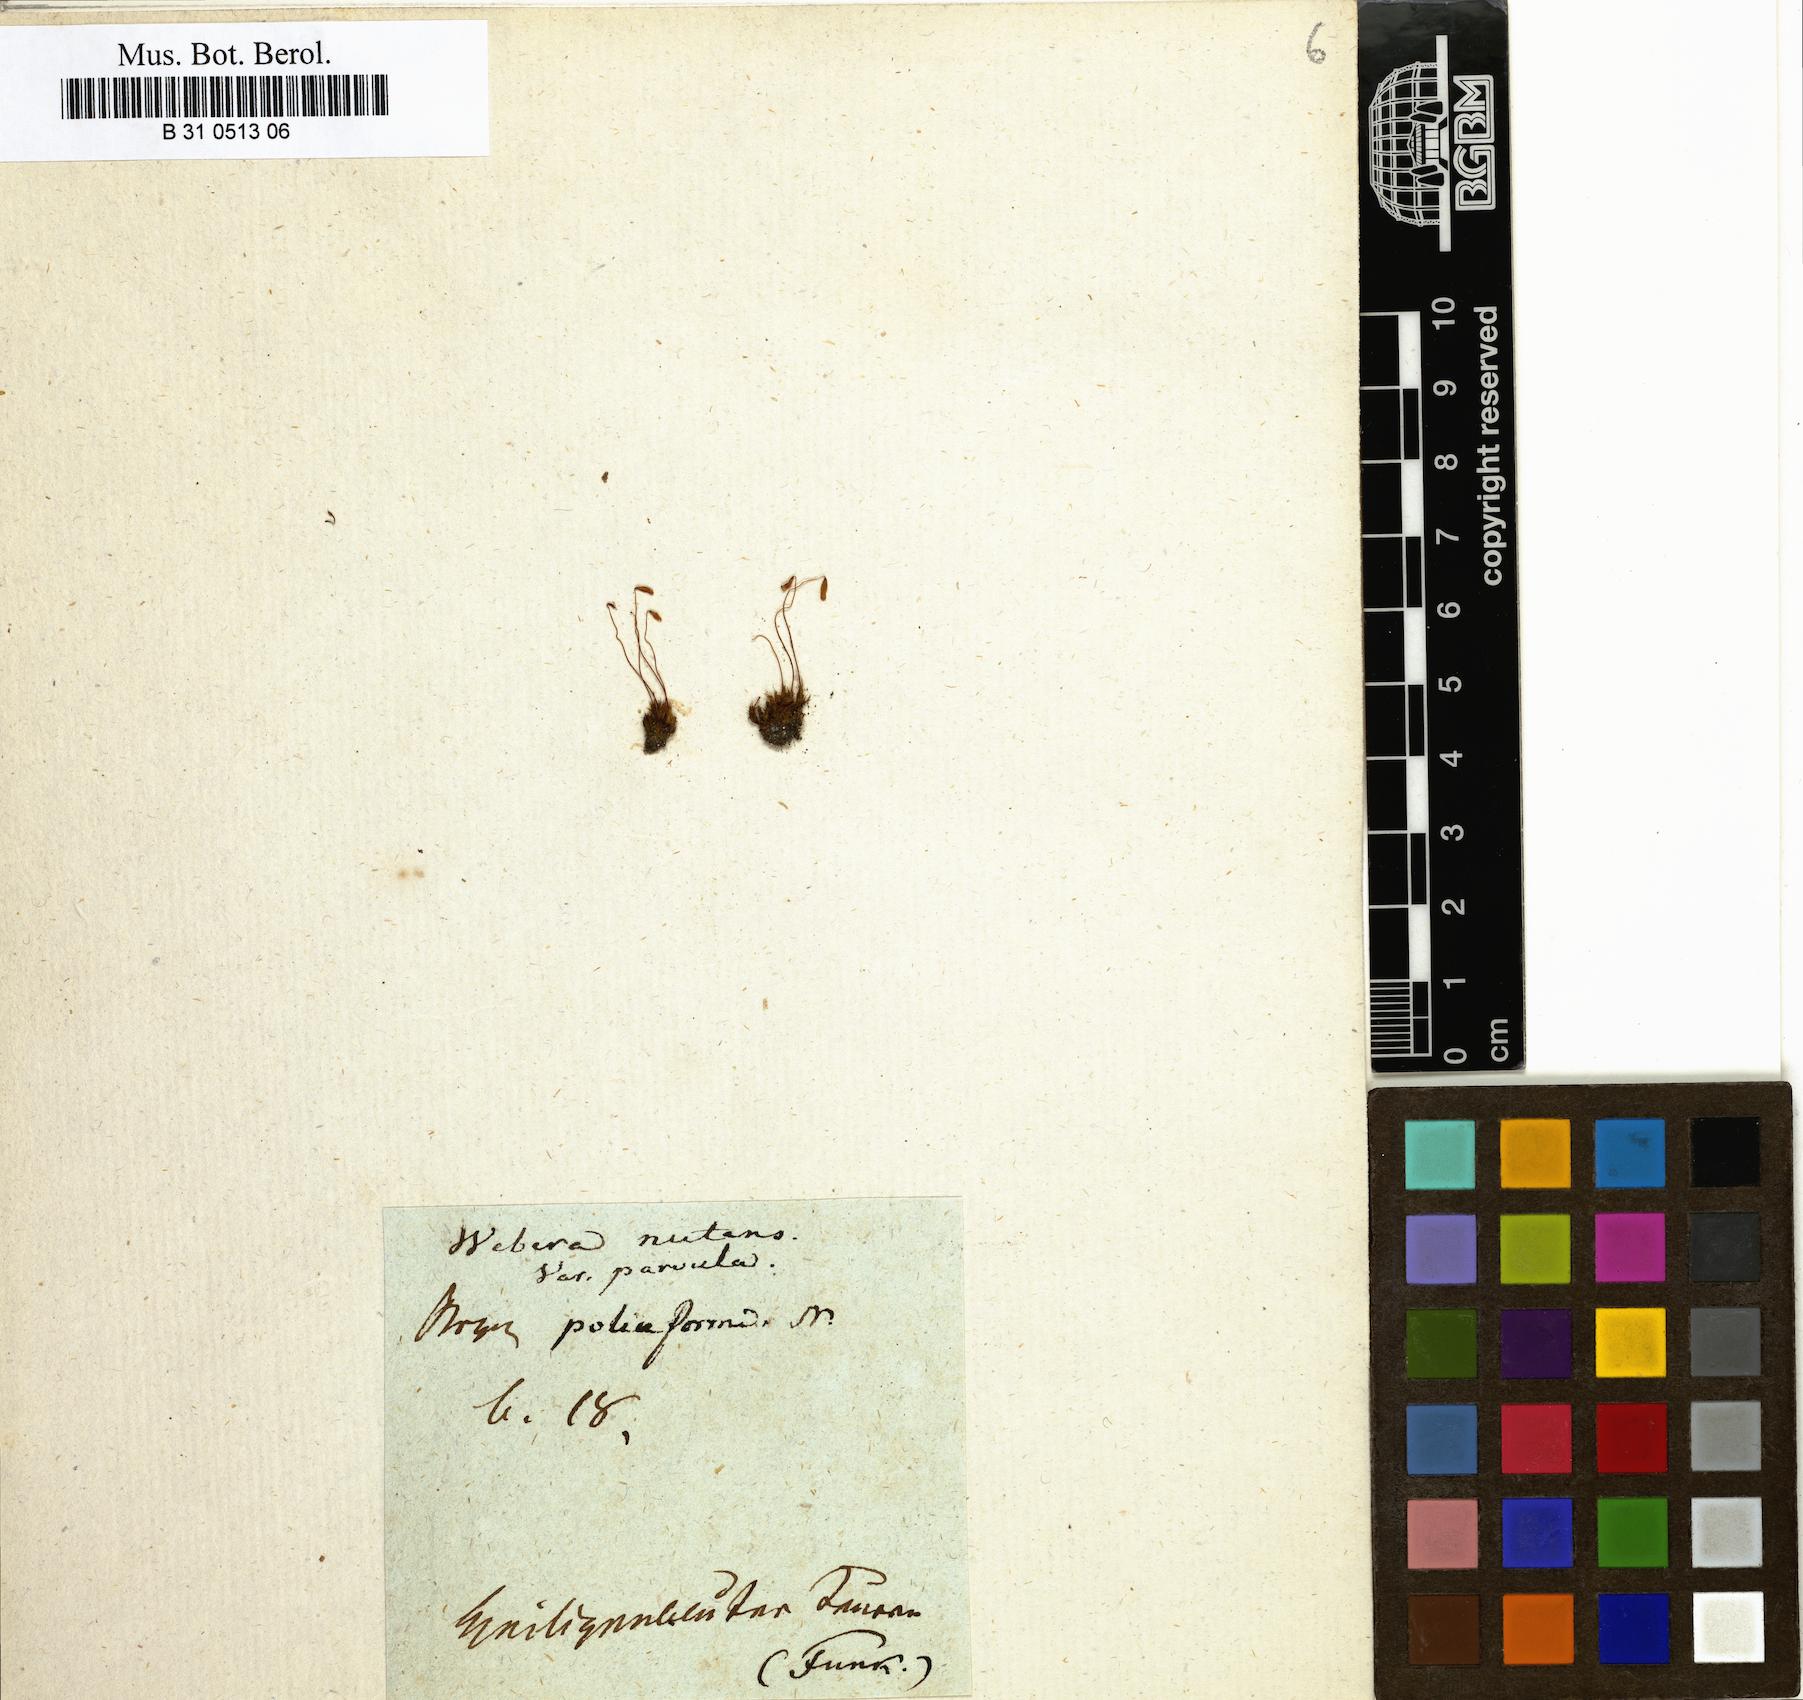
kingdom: Plantae
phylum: Bryophyta
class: Bryopsida
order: Bryales
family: Mniaceae
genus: Pohlia
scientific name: Pohlia nutans
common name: Nodding thread-moss
